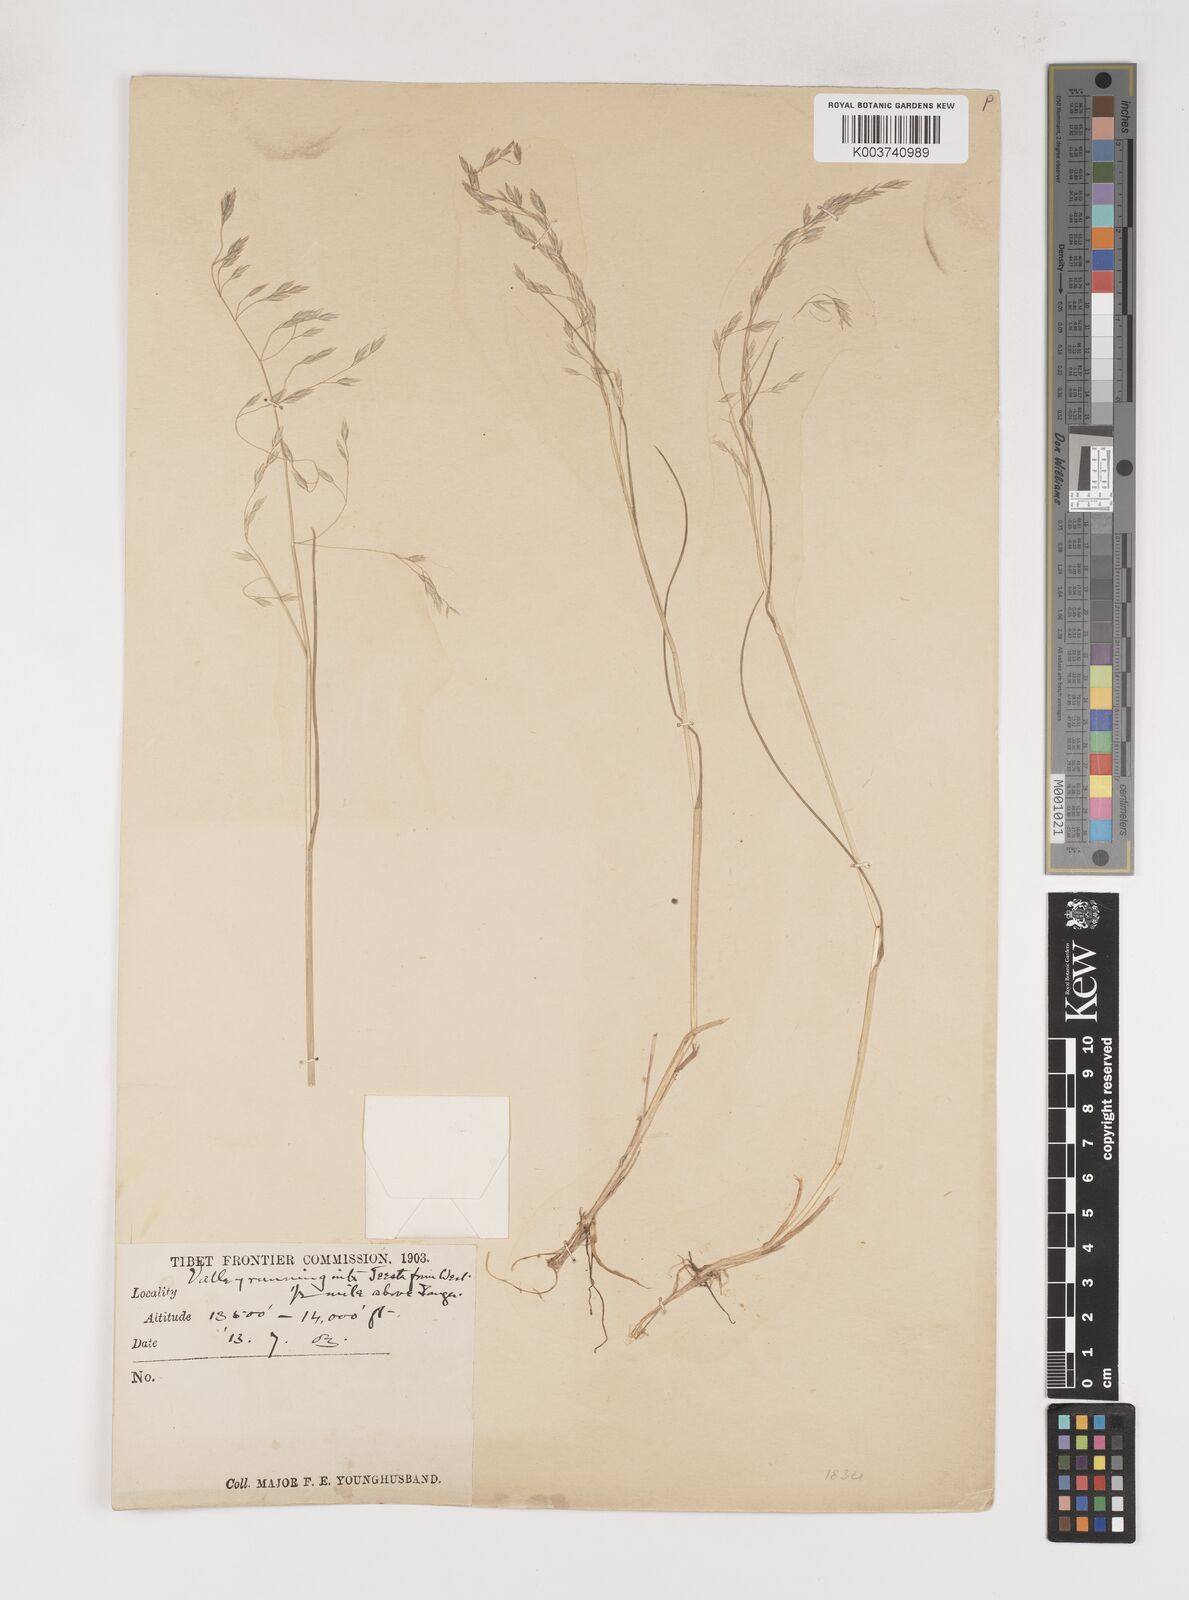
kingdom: Plantae
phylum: Tracheophyta
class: Liliopsida
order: Poales
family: Poaceae
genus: Poa
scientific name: Poa nitidespiculata
